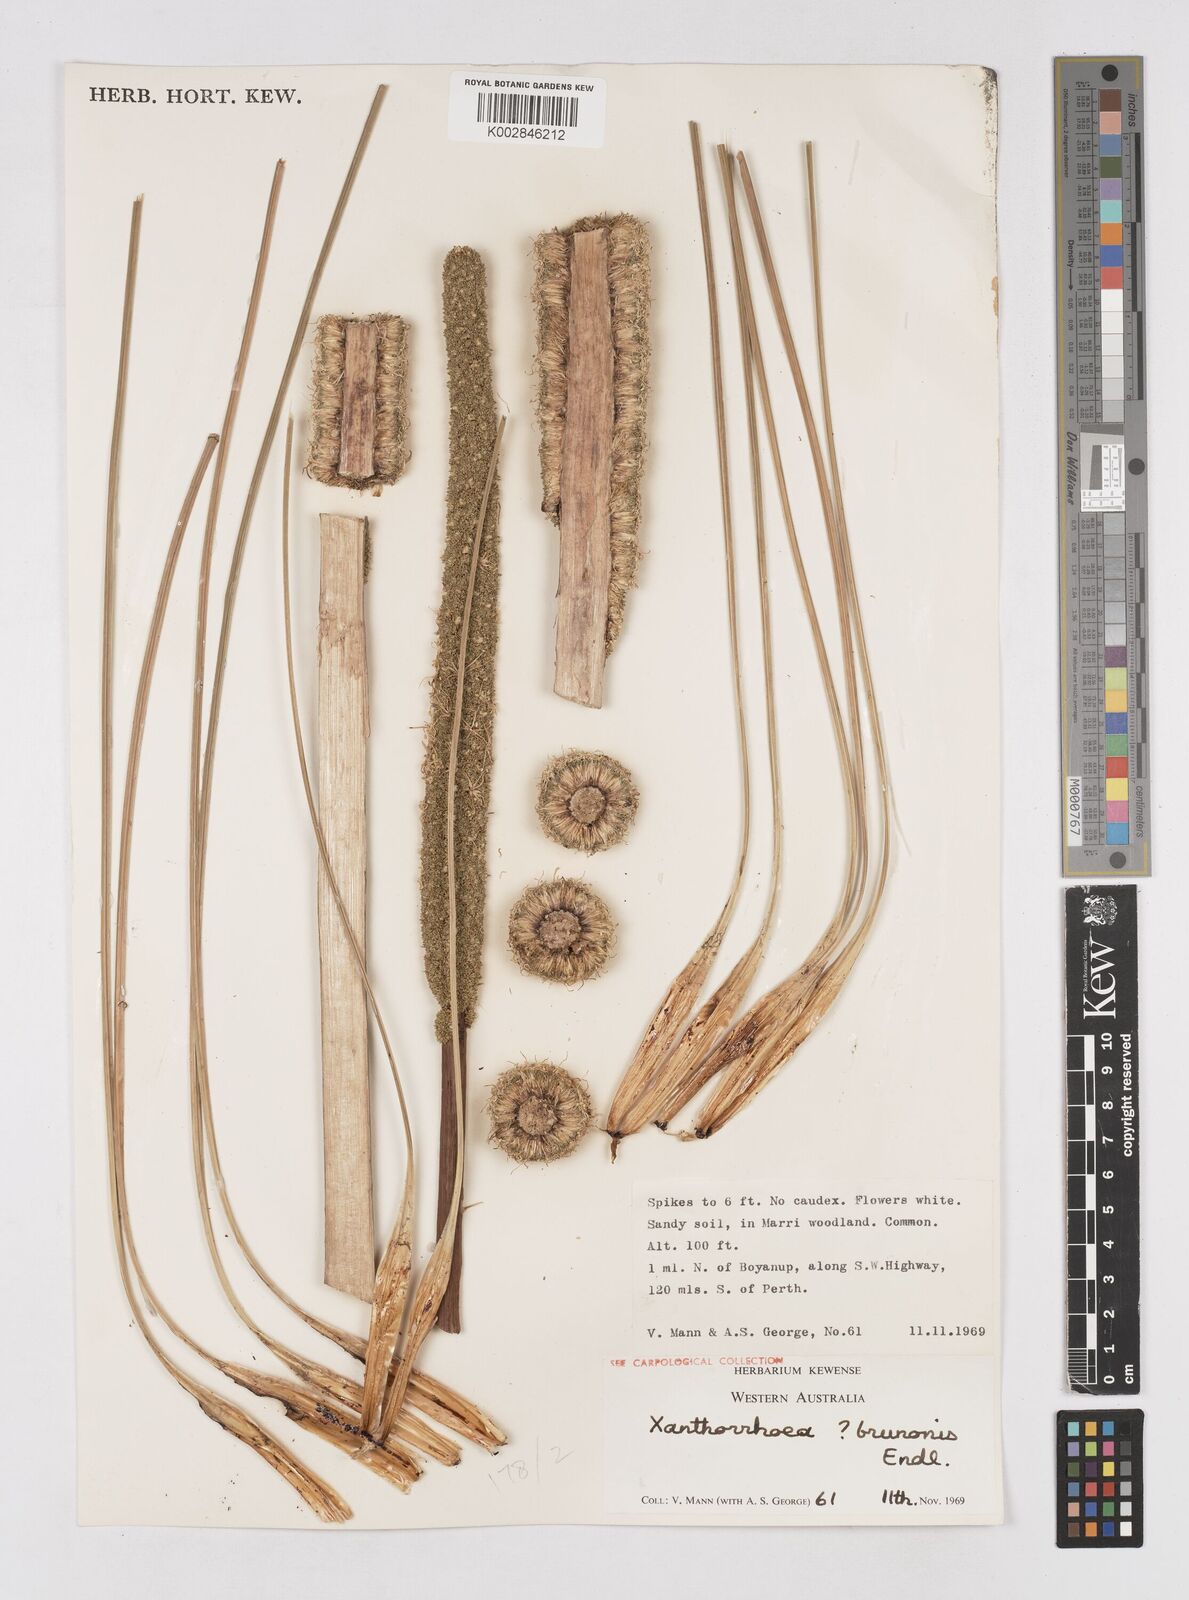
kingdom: Plantae
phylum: Tracheophyta
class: Liliopsida
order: Asparagales
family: Asphodelaceae
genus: Xanthorrhoea
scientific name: Xanthorrhoea brunonis
